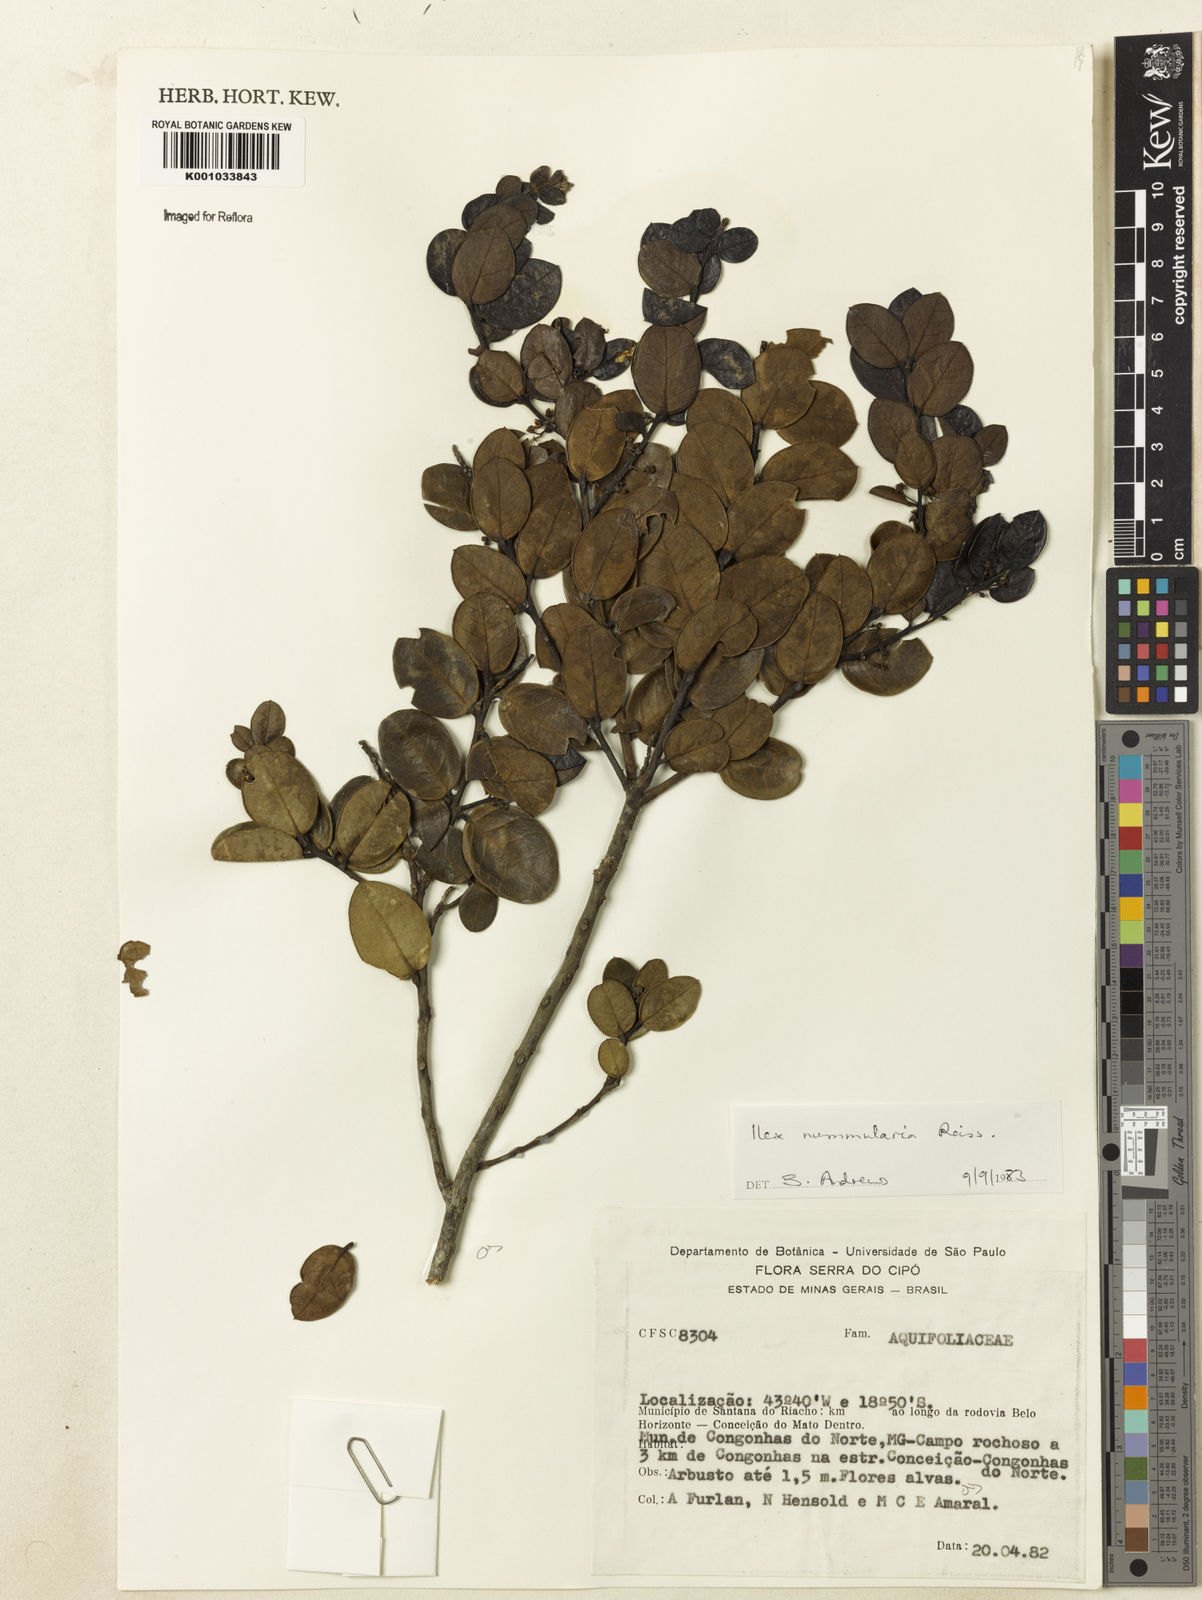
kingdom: Plantae
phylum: Tracheophyta
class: Magnoliopsida
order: Aquifoliales
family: Aquifoliaceae
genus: Ilex
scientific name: Ilex nummularia
